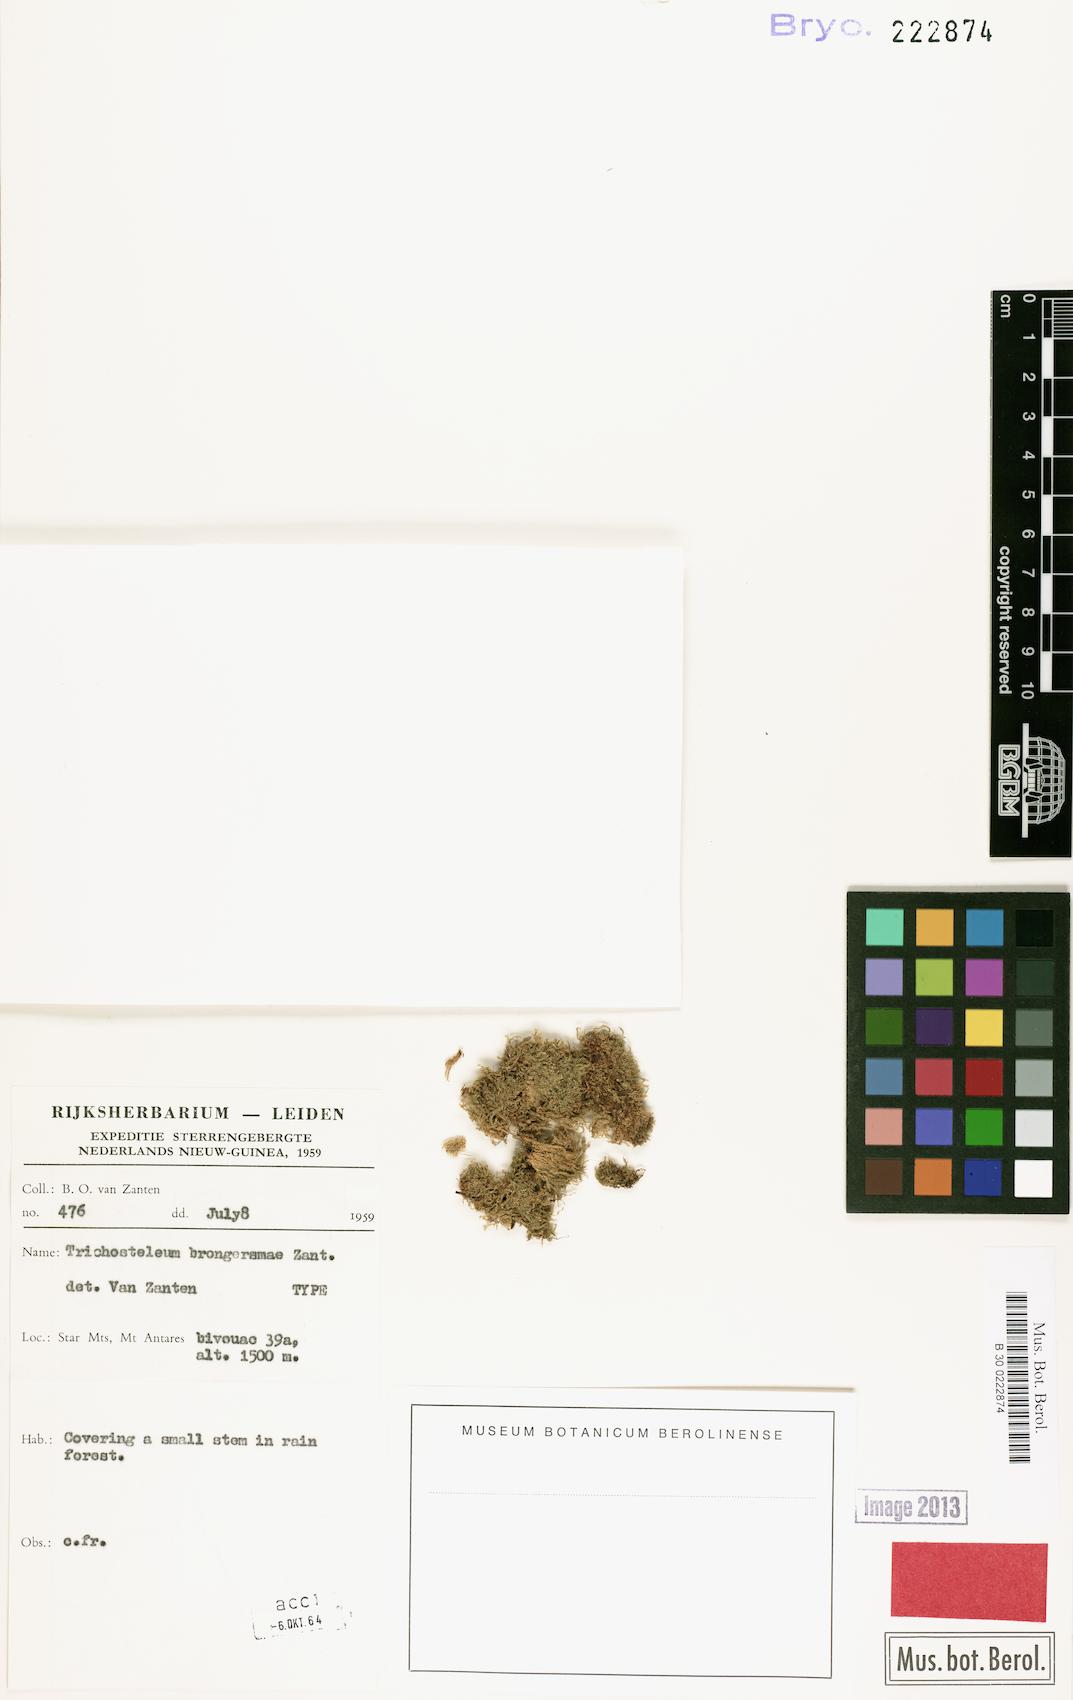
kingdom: Plantae
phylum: Bryophyta
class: Bryopsida
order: Hypnales
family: Sematophyllaceae
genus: Papillidiopsis
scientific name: Papillidiopsis ramulina
